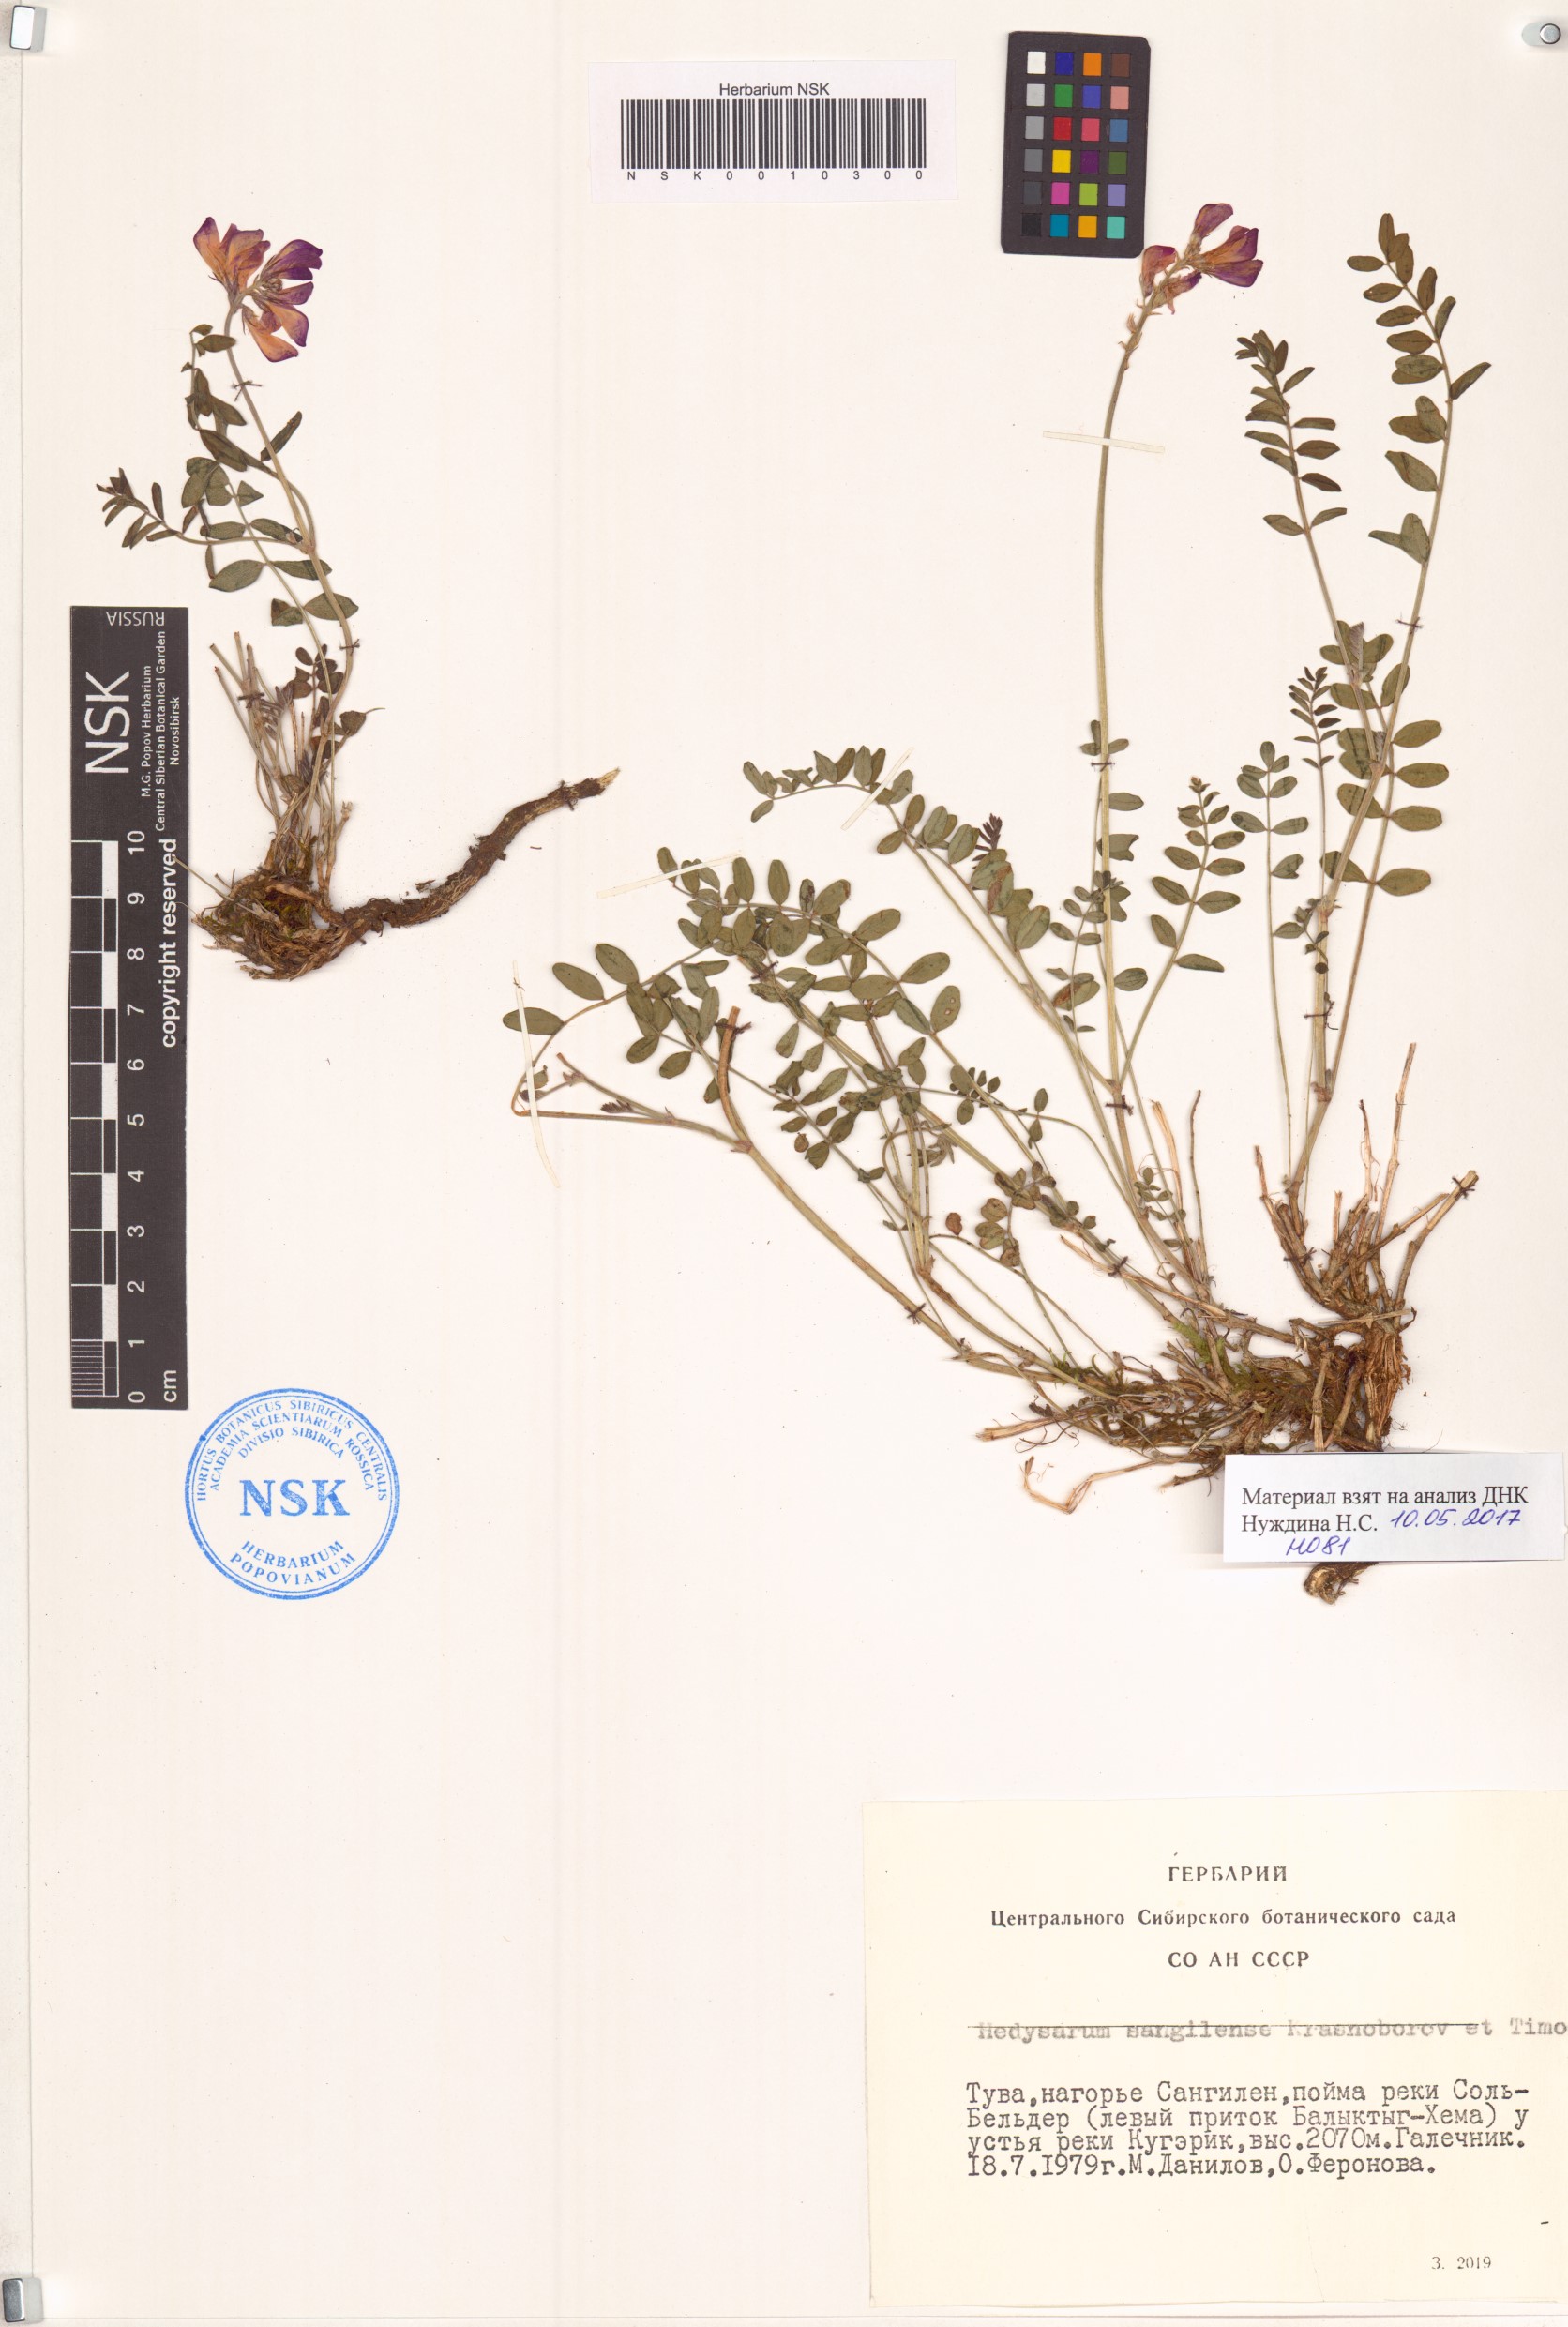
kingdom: Plantae
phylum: Tracheophyta
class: Magnoliopsida
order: Fabales
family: Fabaceae
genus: Hedysarum
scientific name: Hedysarum sangilense
